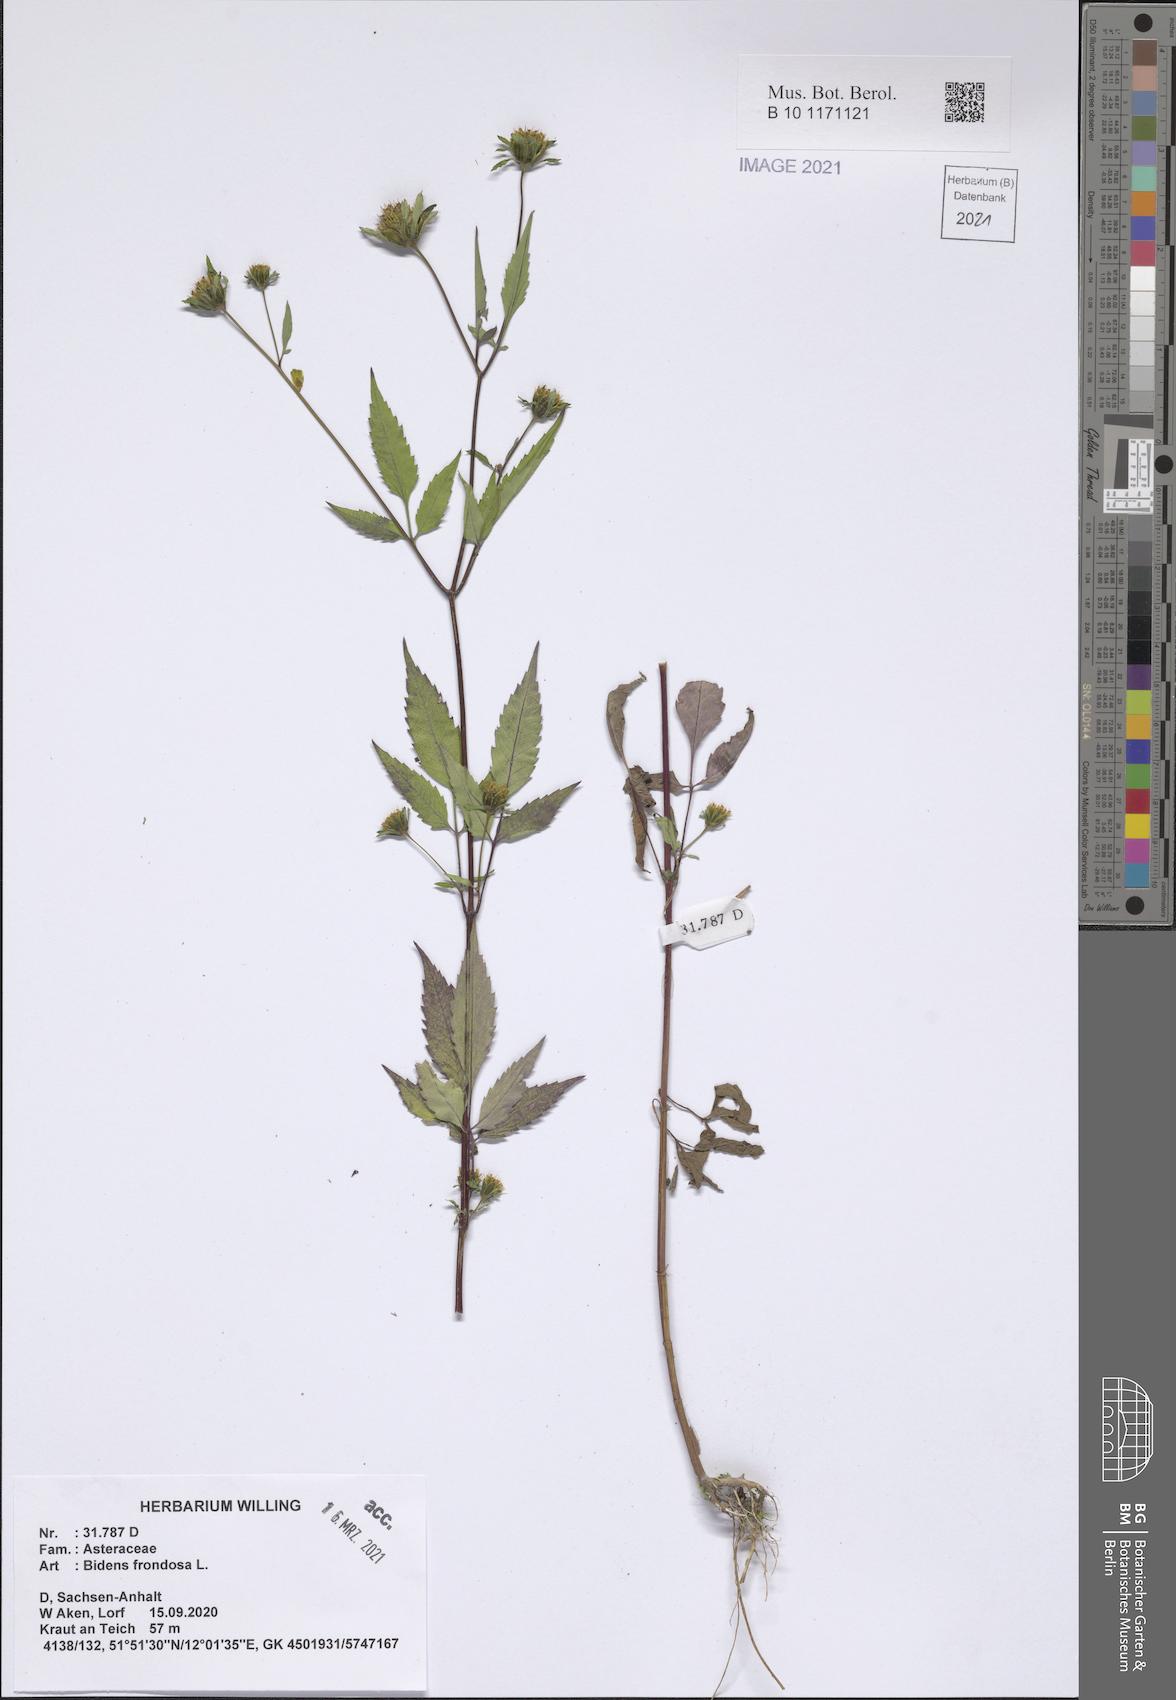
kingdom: Plantae
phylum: Tracheophyta
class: Magnoliopsida
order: Asterales
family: Asteraceae
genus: Bidens
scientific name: Bidens frondosa
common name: Beggarticks
